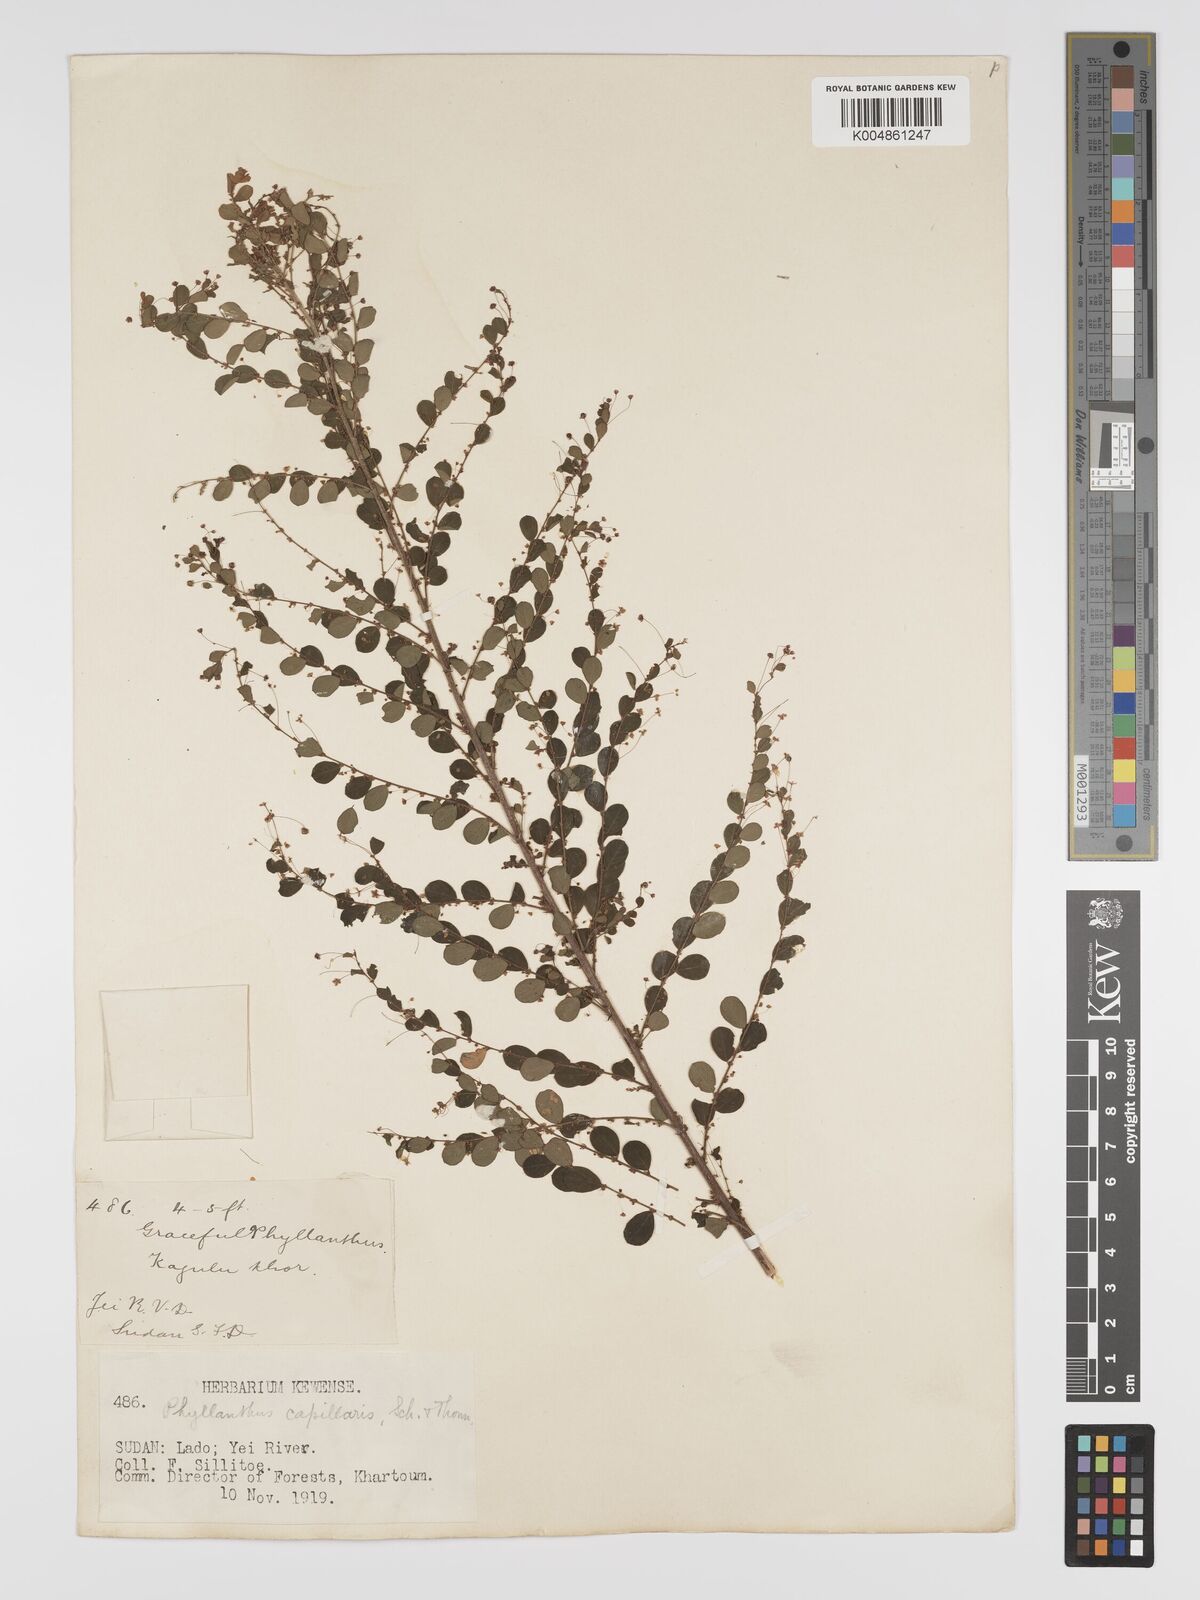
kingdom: Plantae
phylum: Tracheophyta
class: Magnoliopsida
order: Malpighiales
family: Phyllanthaceae
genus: Phyllanthus
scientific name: Phyllanthus nummulariifolius
